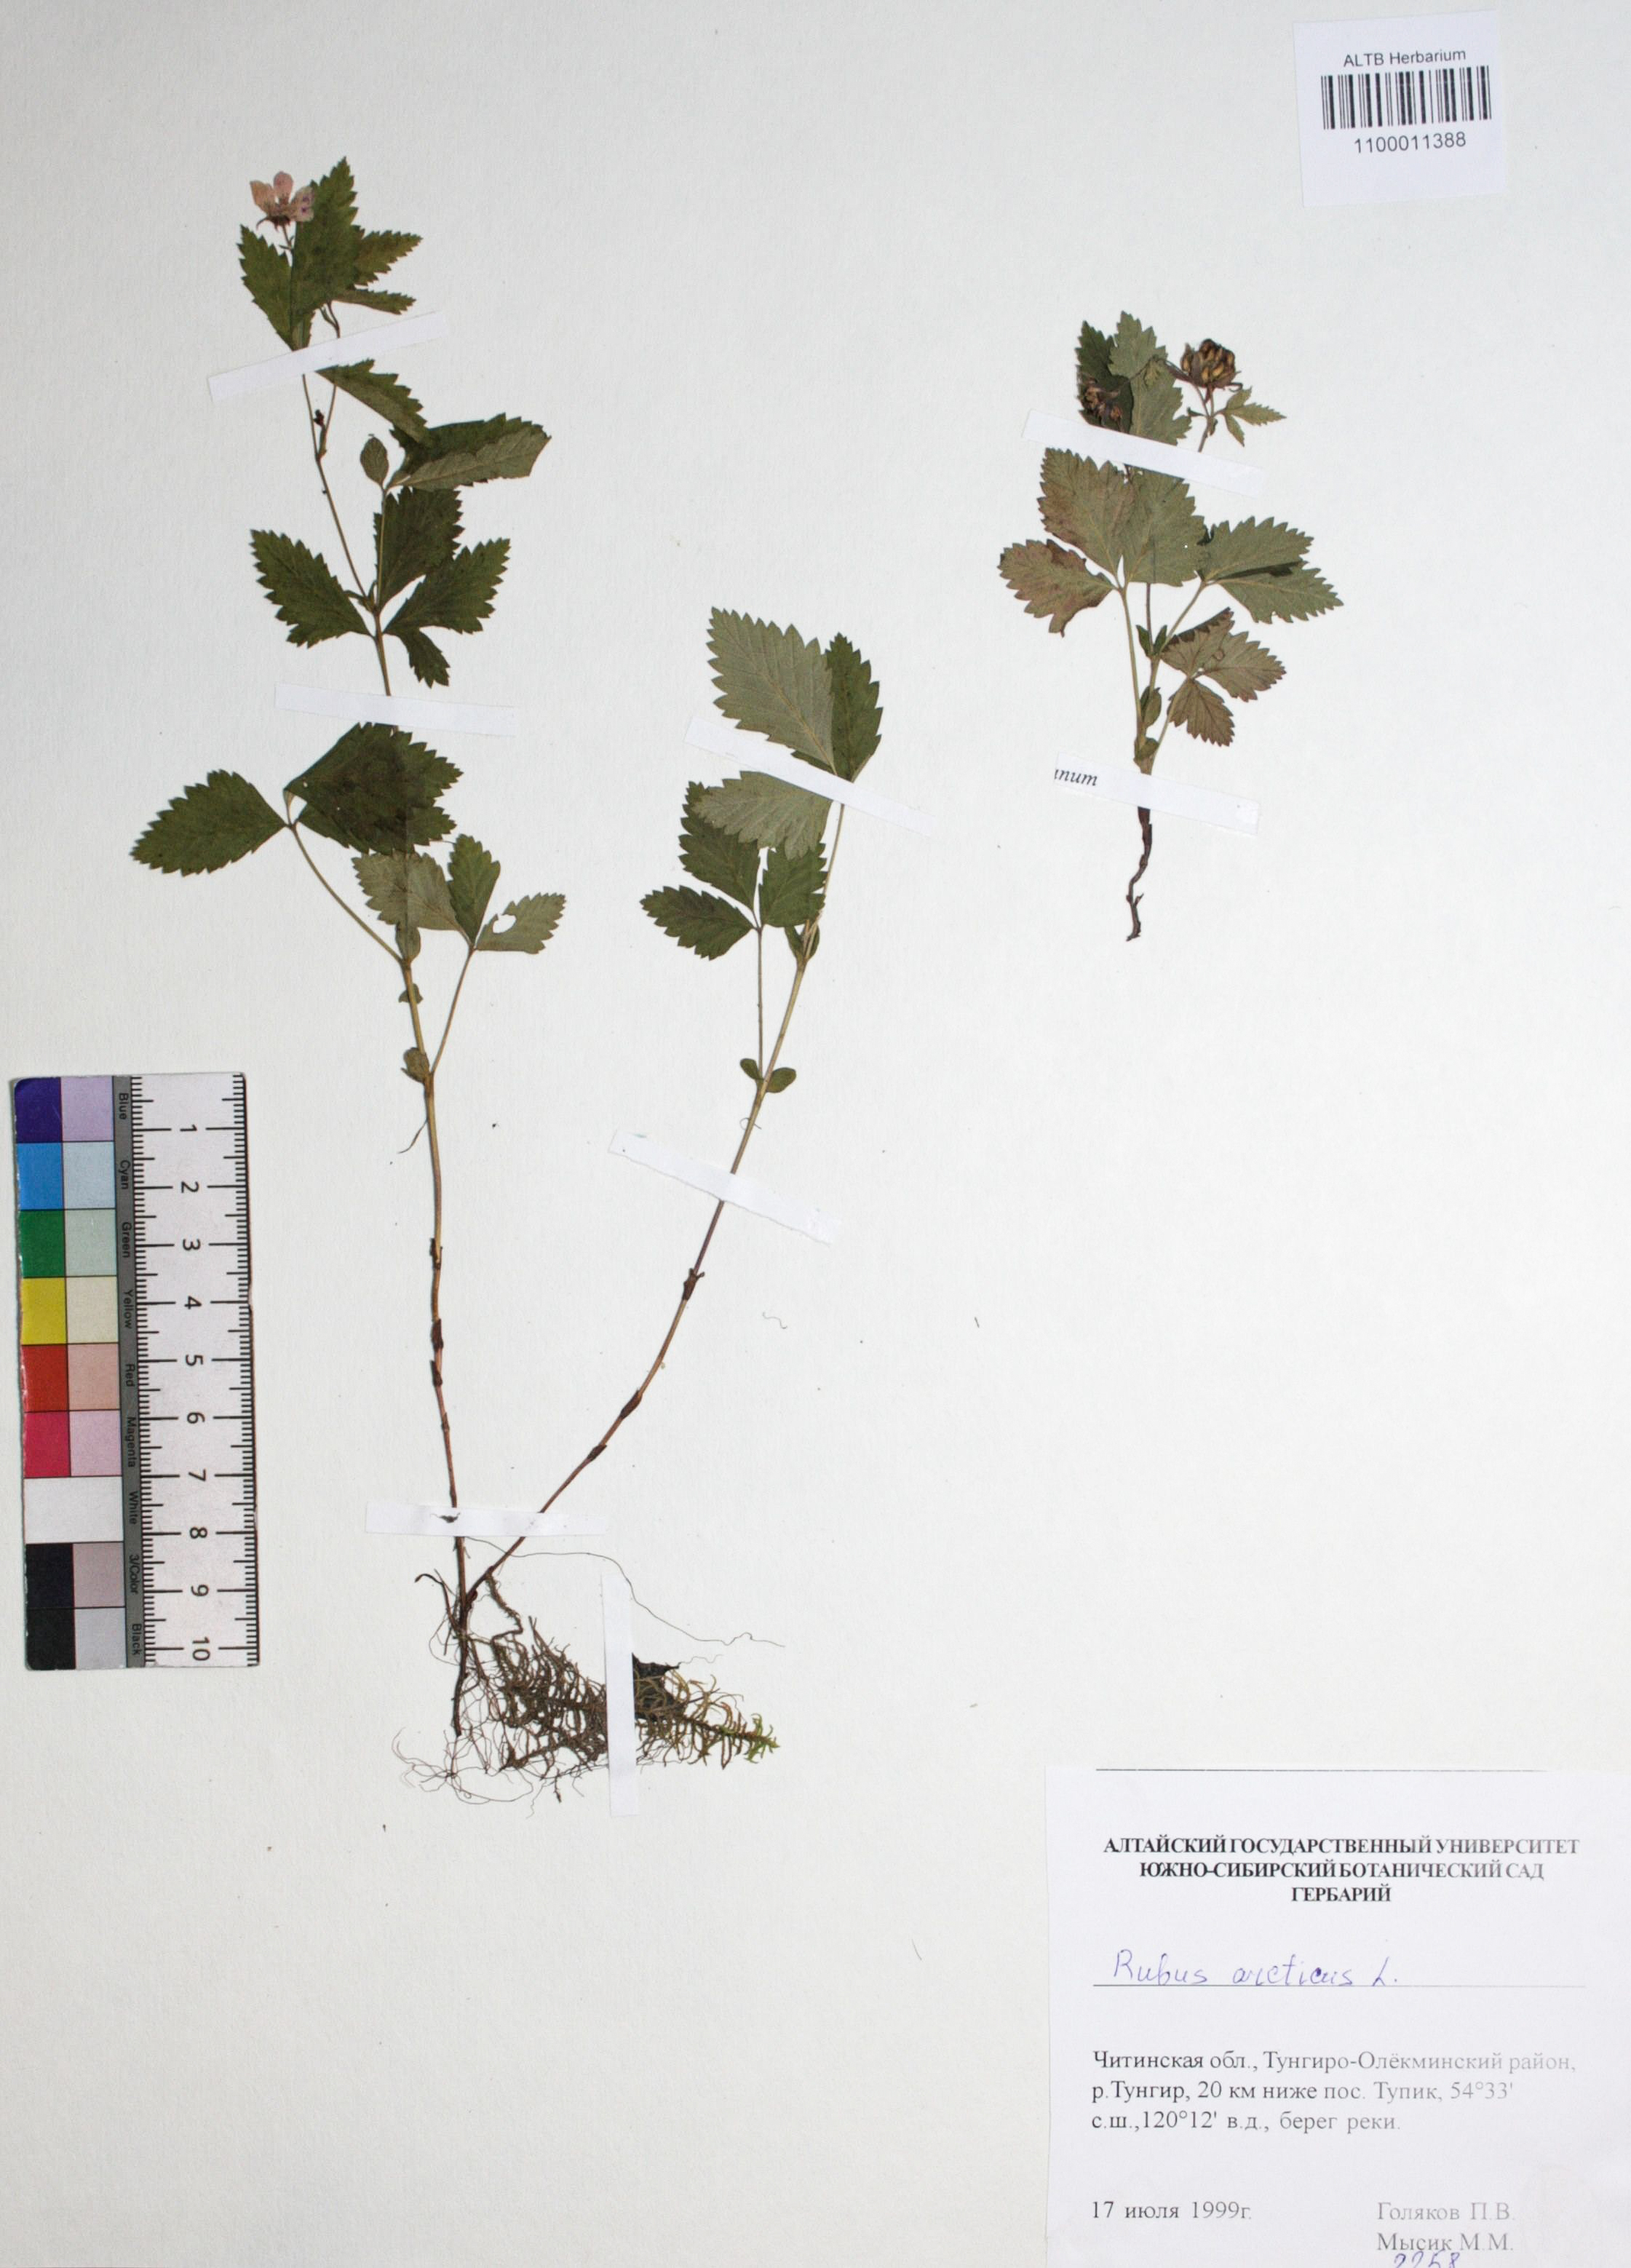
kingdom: Plantae
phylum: Tracheophyta
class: Magnoliopsida
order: Rosales
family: Rosaceae
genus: Rubus
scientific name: Rubus arcticus
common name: Arctic bramble
